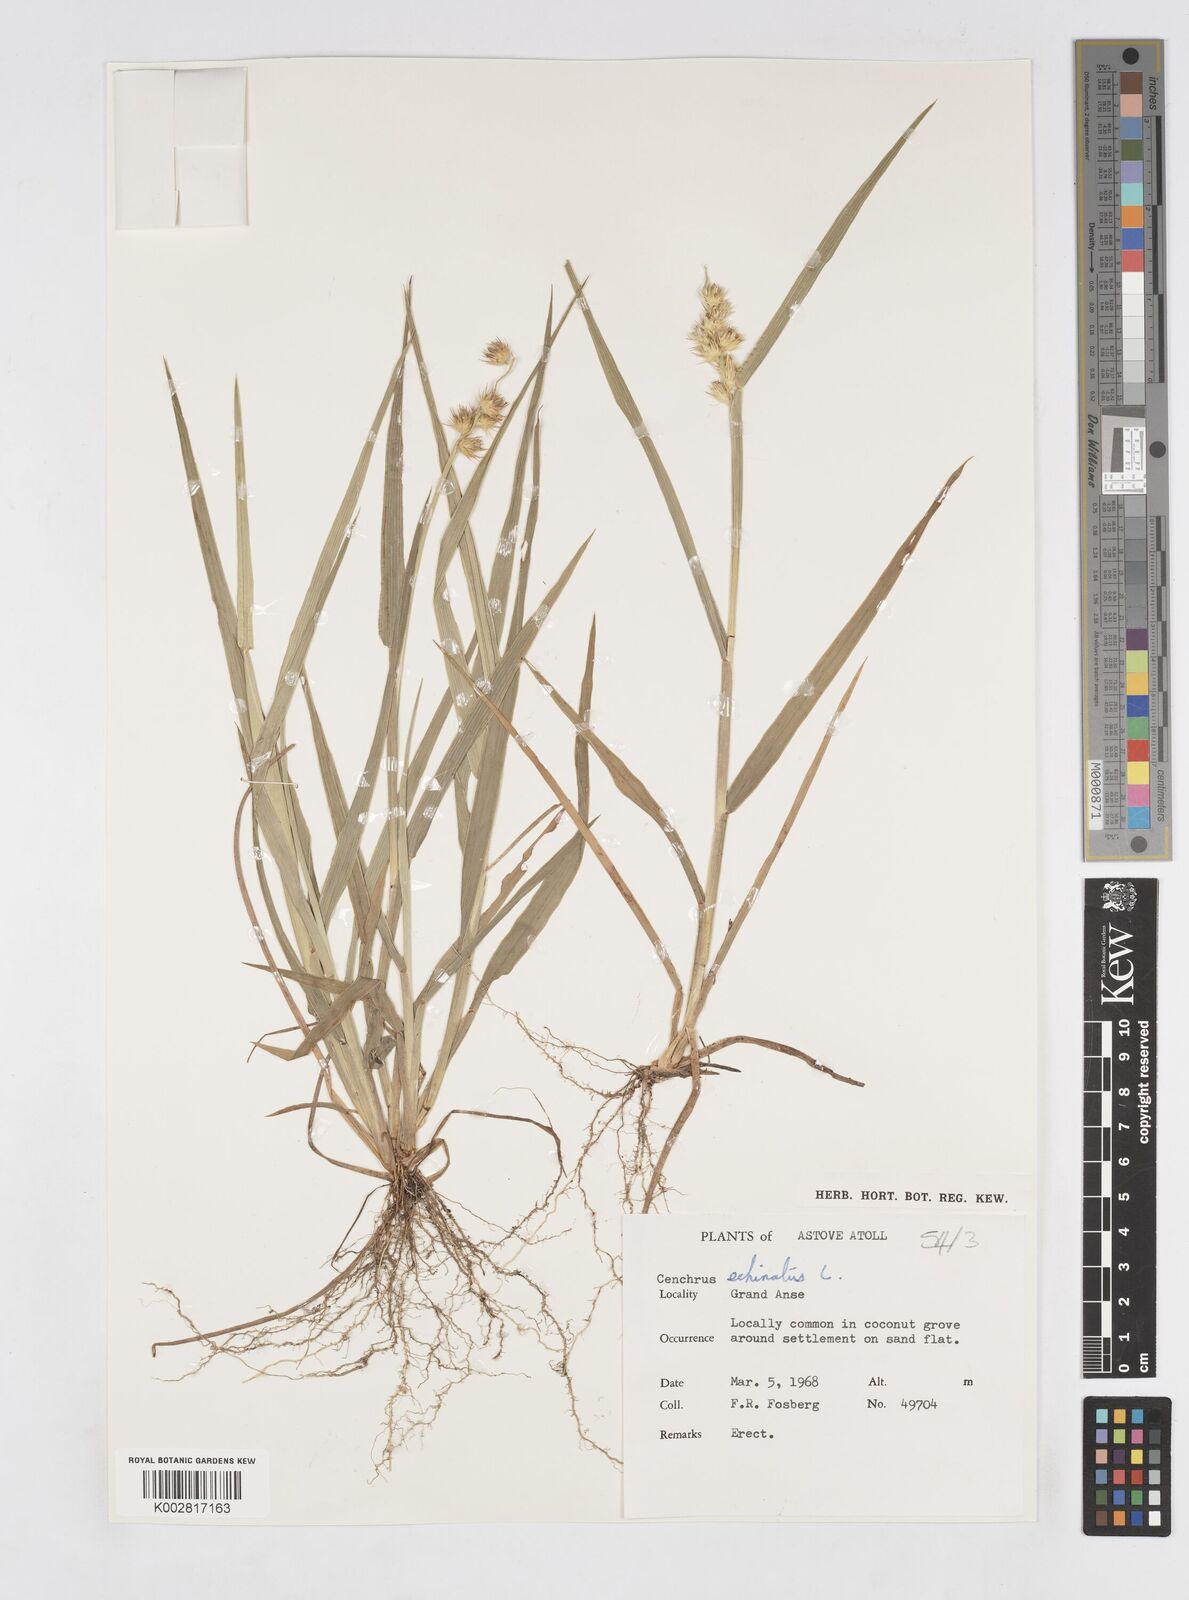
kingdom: Plantae
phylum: Tracheophyta
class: Liliopsida
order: Poales
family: Poaceae
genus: Cenchrus
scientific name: Cenchrus echinatus
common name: Southern sandbur
